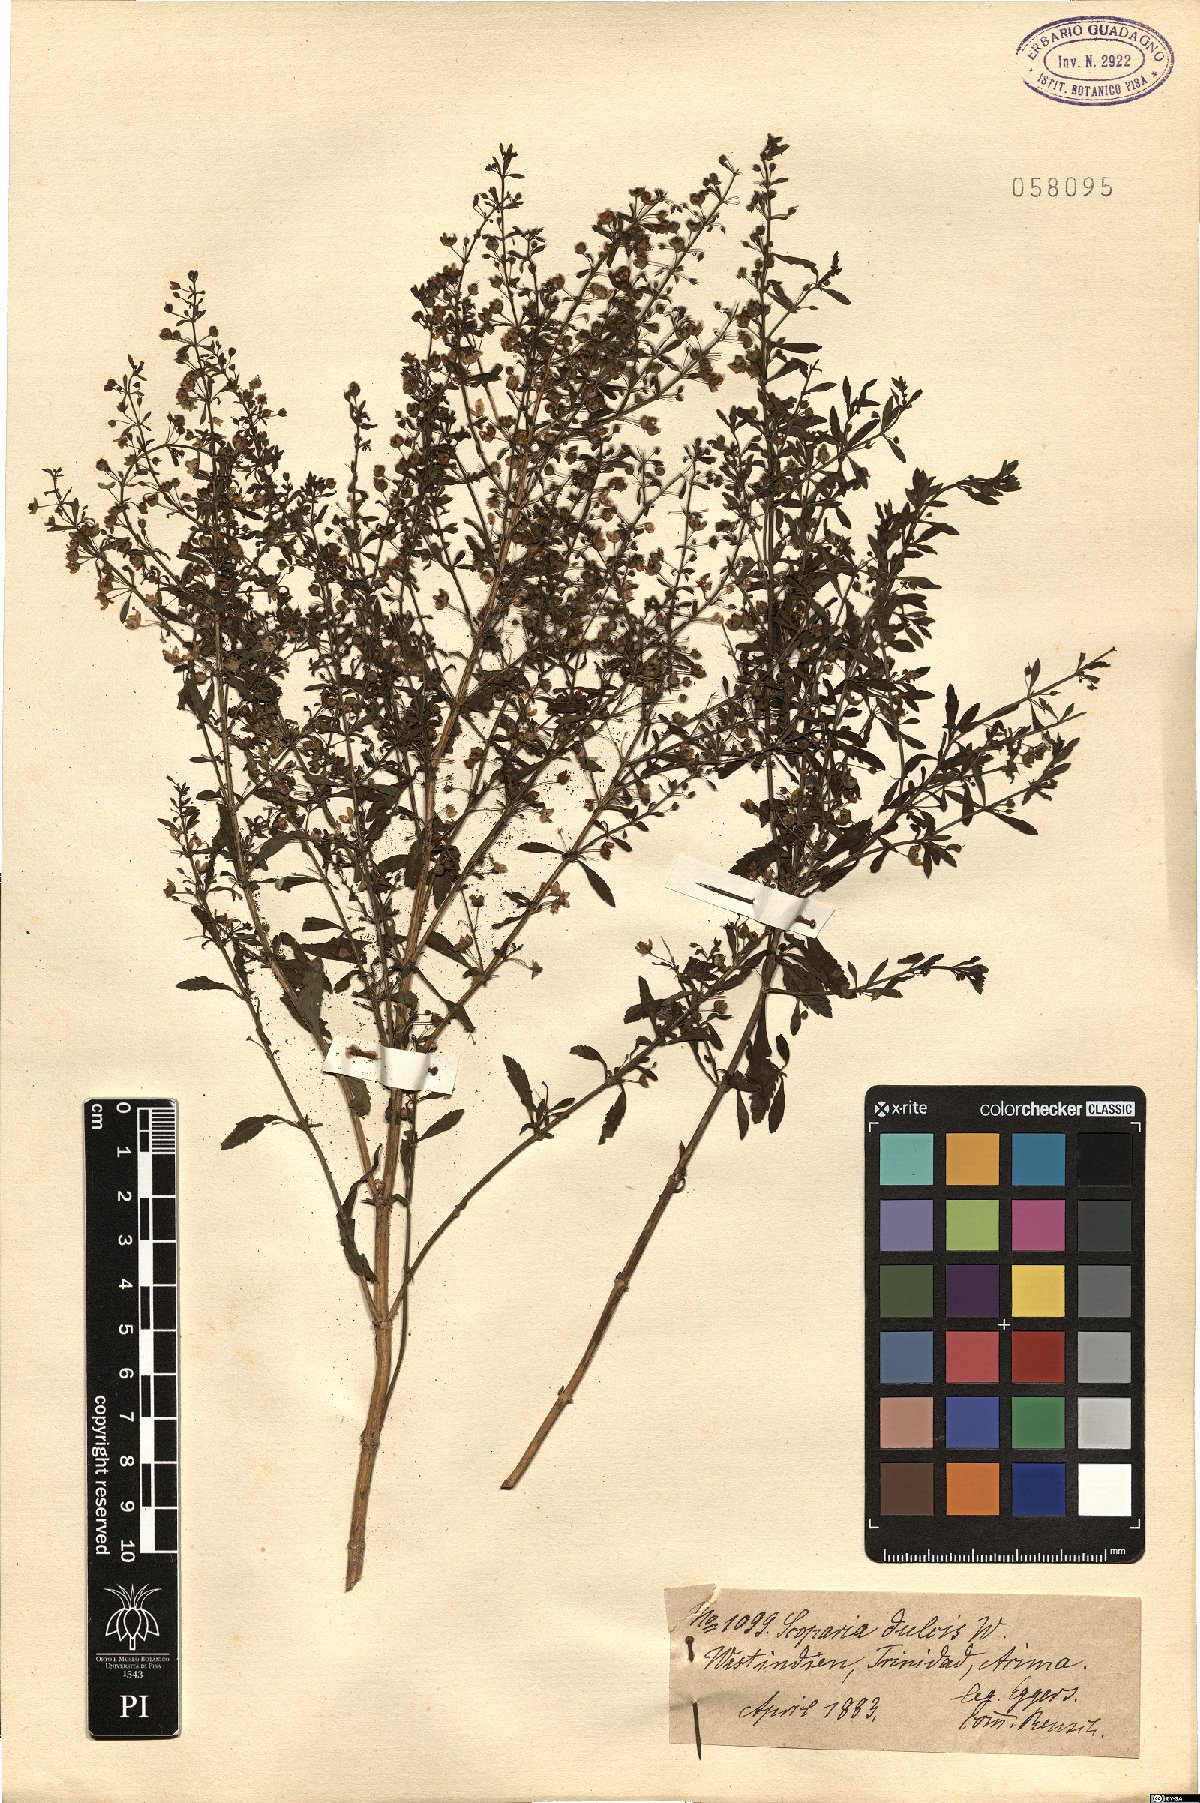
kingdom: Plantae
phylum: Tracheophyta
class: Magnoliopsida
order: Lamiales
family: Plantaginaceae
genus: Scoparia
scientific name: Scoparia dulcis
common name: Scoparia-weed
